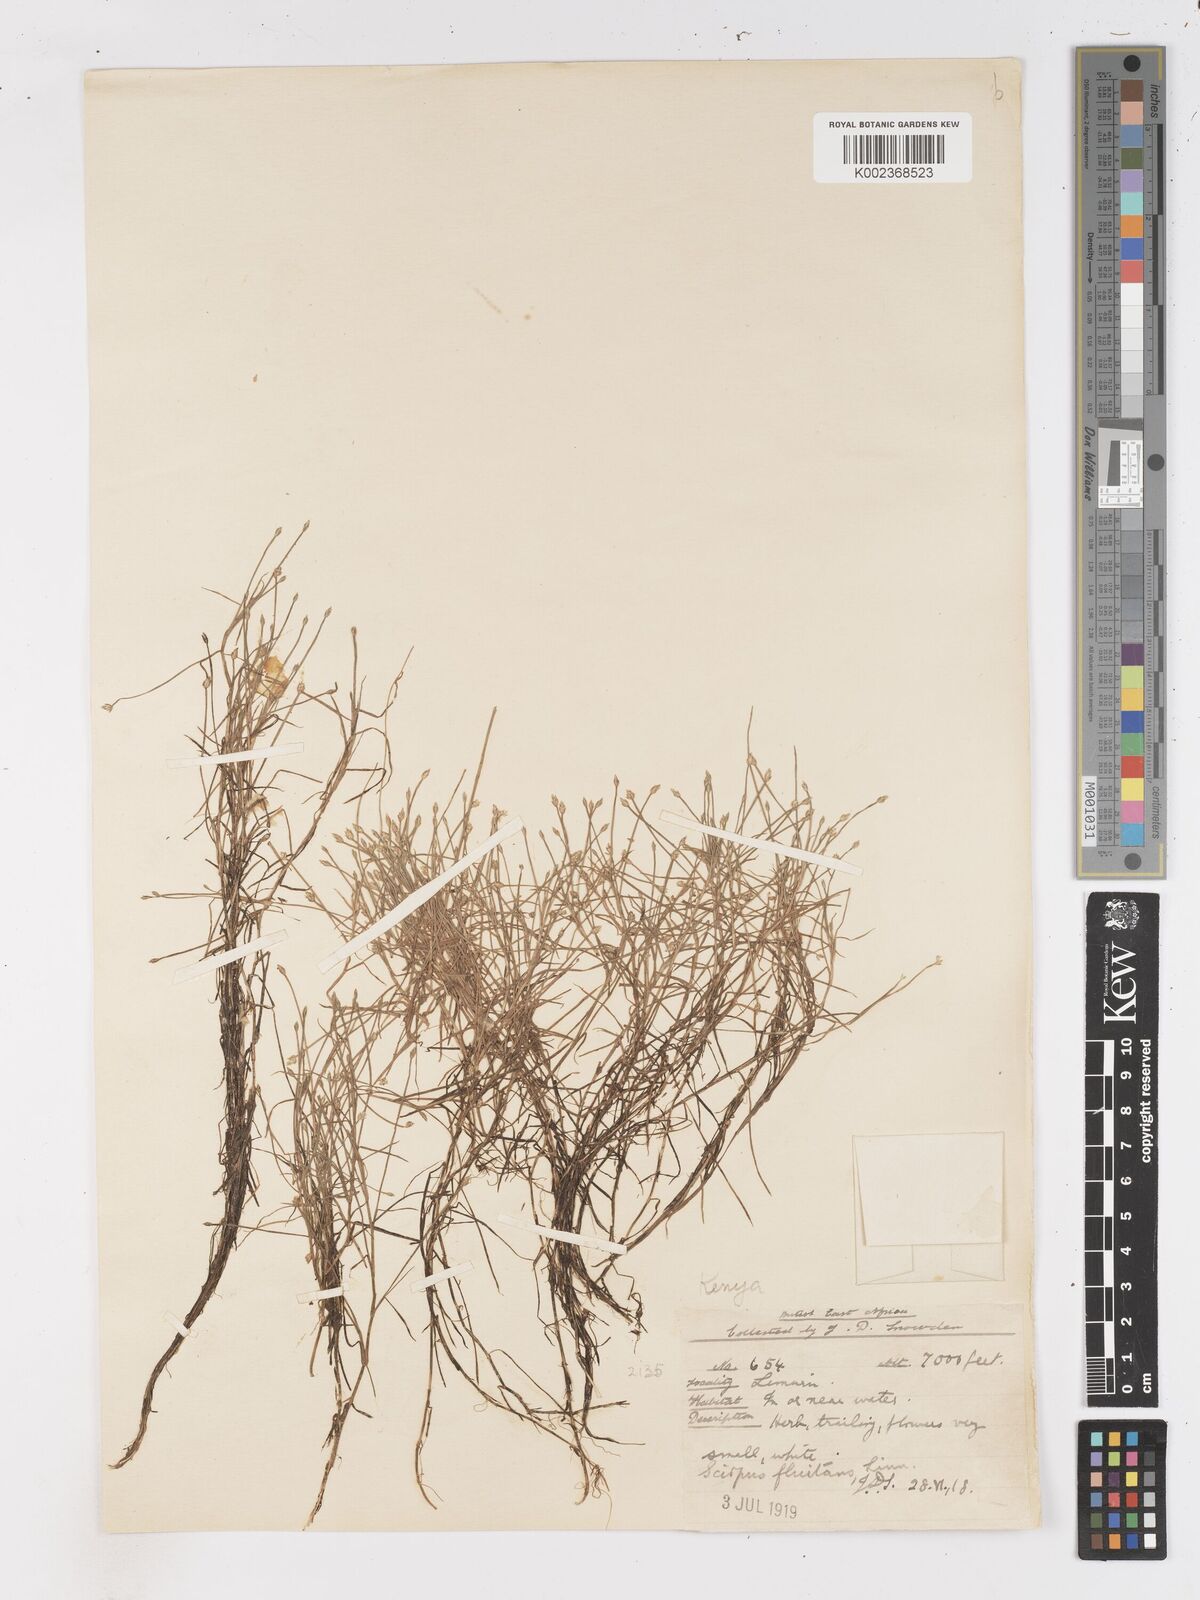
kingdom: Plantae
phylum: Tracheophyta
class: Liliopsida
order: Poales
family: Cyperaceae
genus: Isolepis
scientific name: Isolepis fluitans
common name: Floating club-rush
